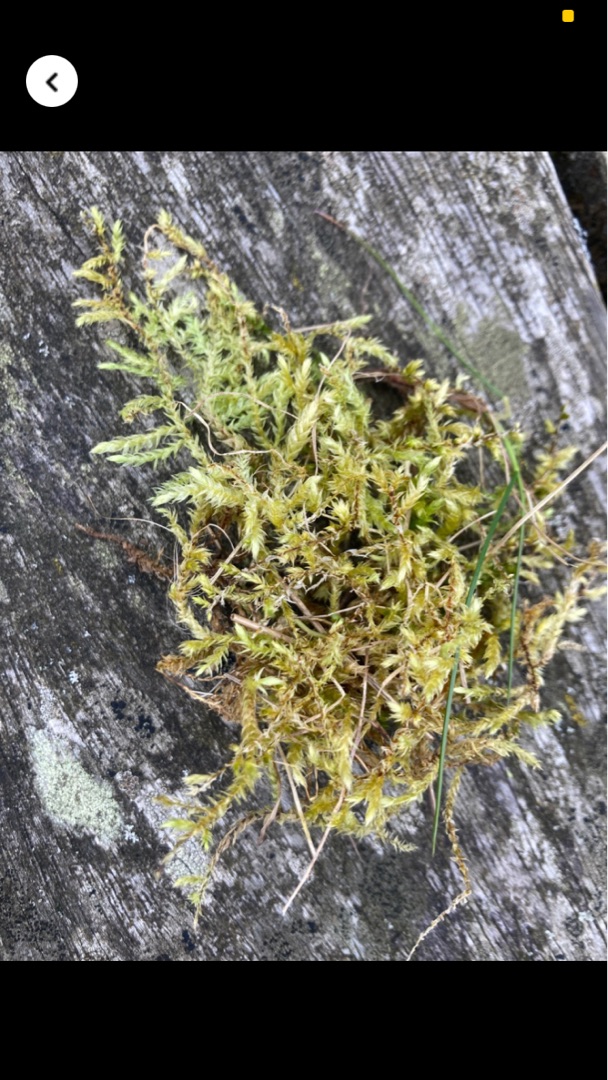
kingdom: Plantae
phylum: Bryophyta
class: Bryopsida
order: Hypnales
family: Brachytheciaceae
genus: Brachythecium
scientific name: Brachythecium rutabulum
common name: Almindelig kortkapsel
